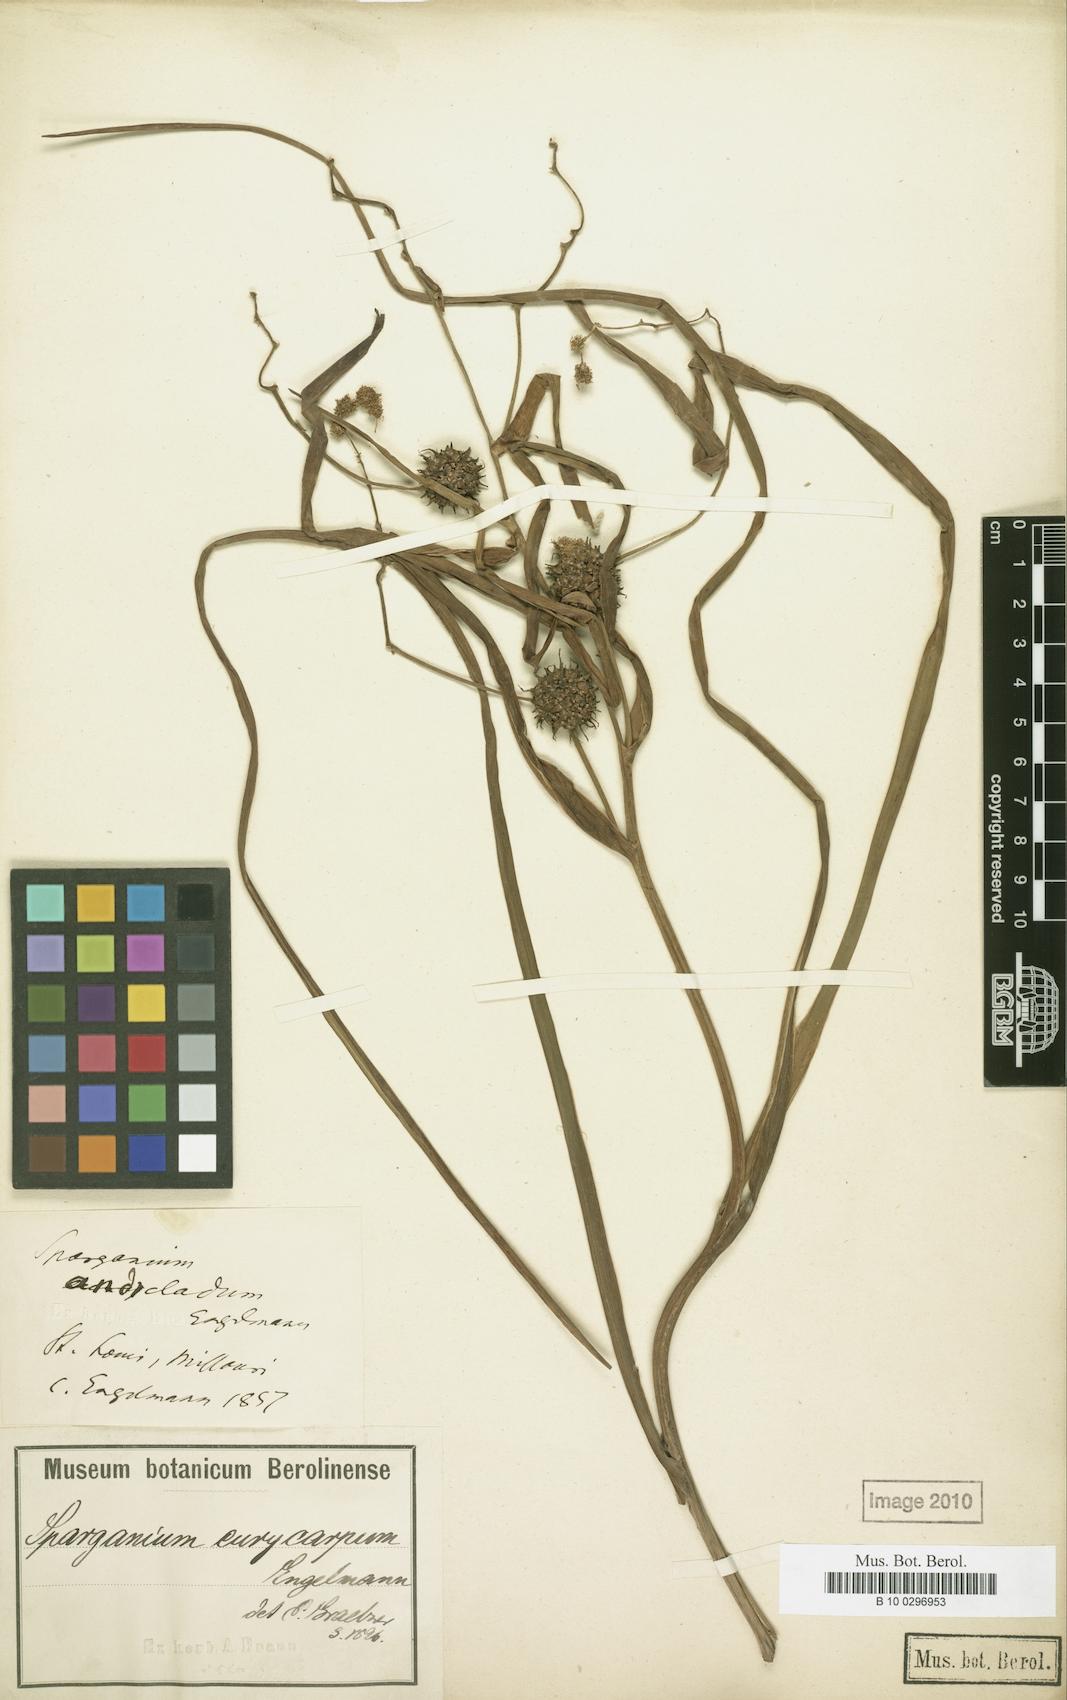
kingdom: Plantae
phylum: Tracheophyta
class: Liliopsida
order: Poales
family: Typhaceae
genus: Sparganium
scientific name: Sparganium eurycarpum
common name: Broad-fruited burreed
